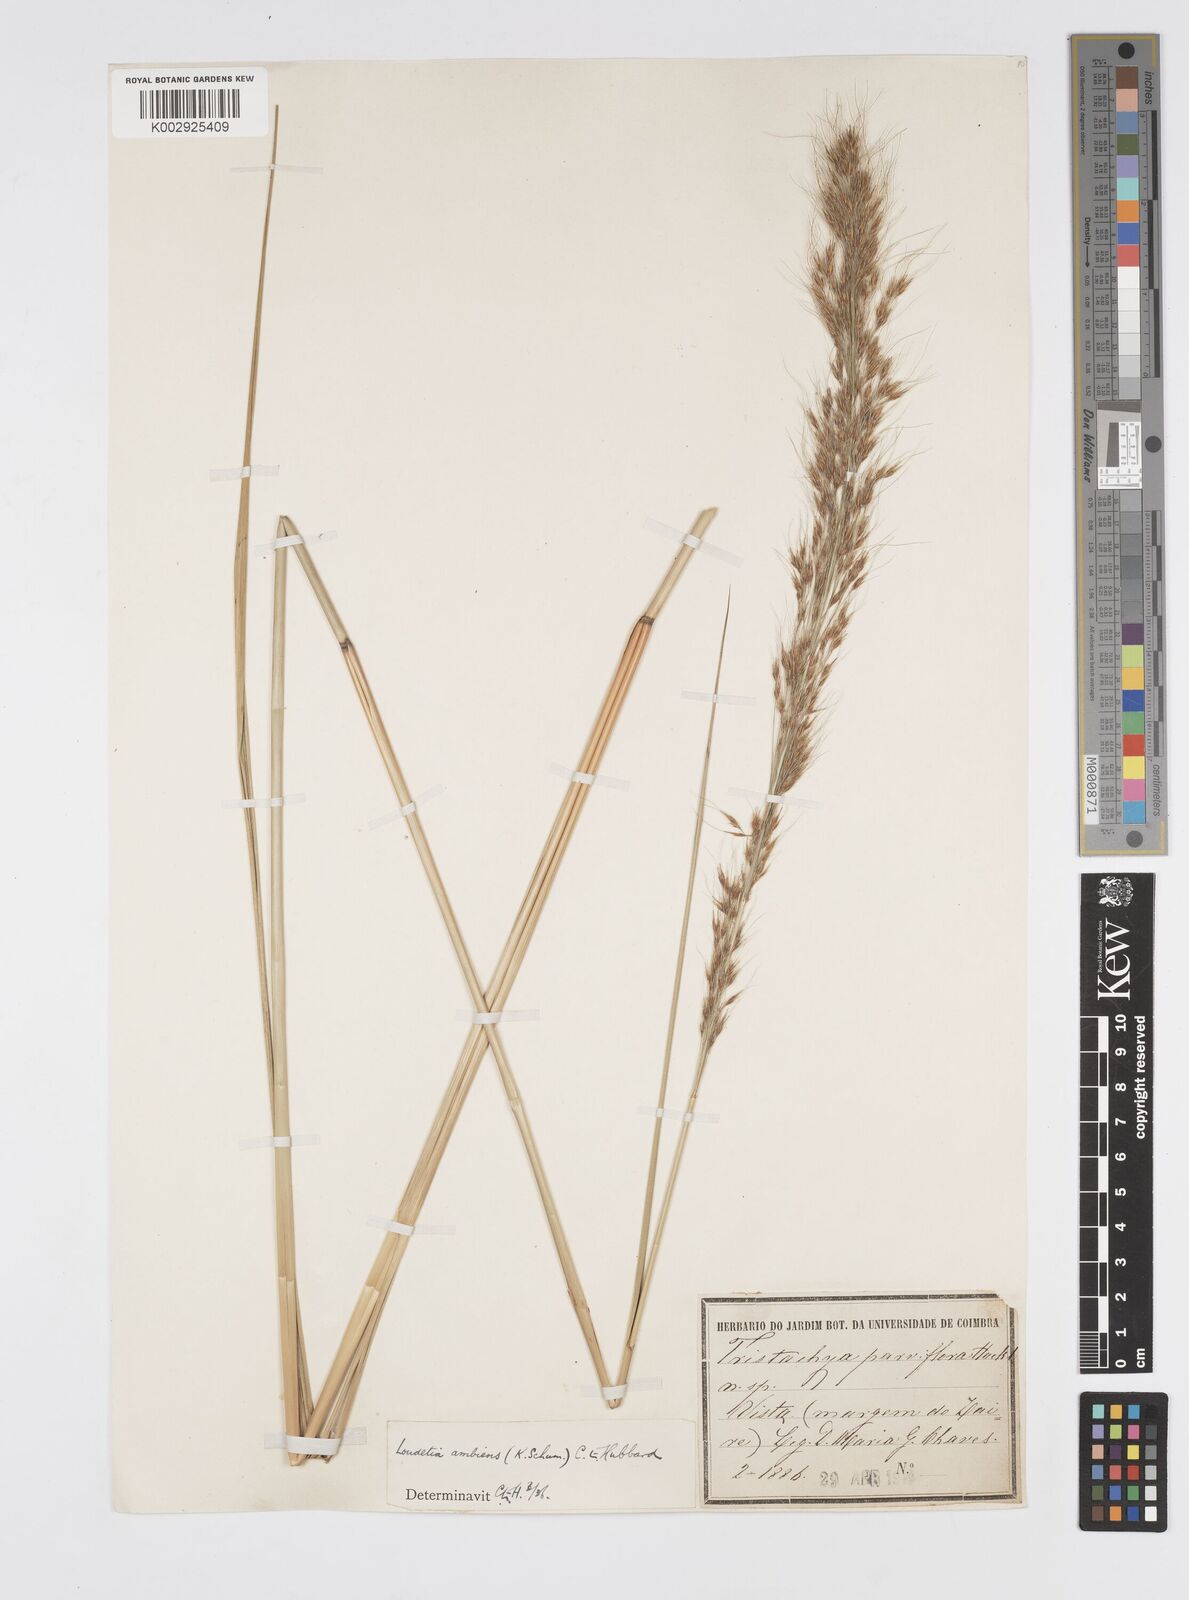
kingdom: Plantae
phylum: Tracheophyta
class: Liliopsida
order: Poales
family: Poaceae
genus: Loudetiopsis
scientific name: Loudetiopsis ambiens
